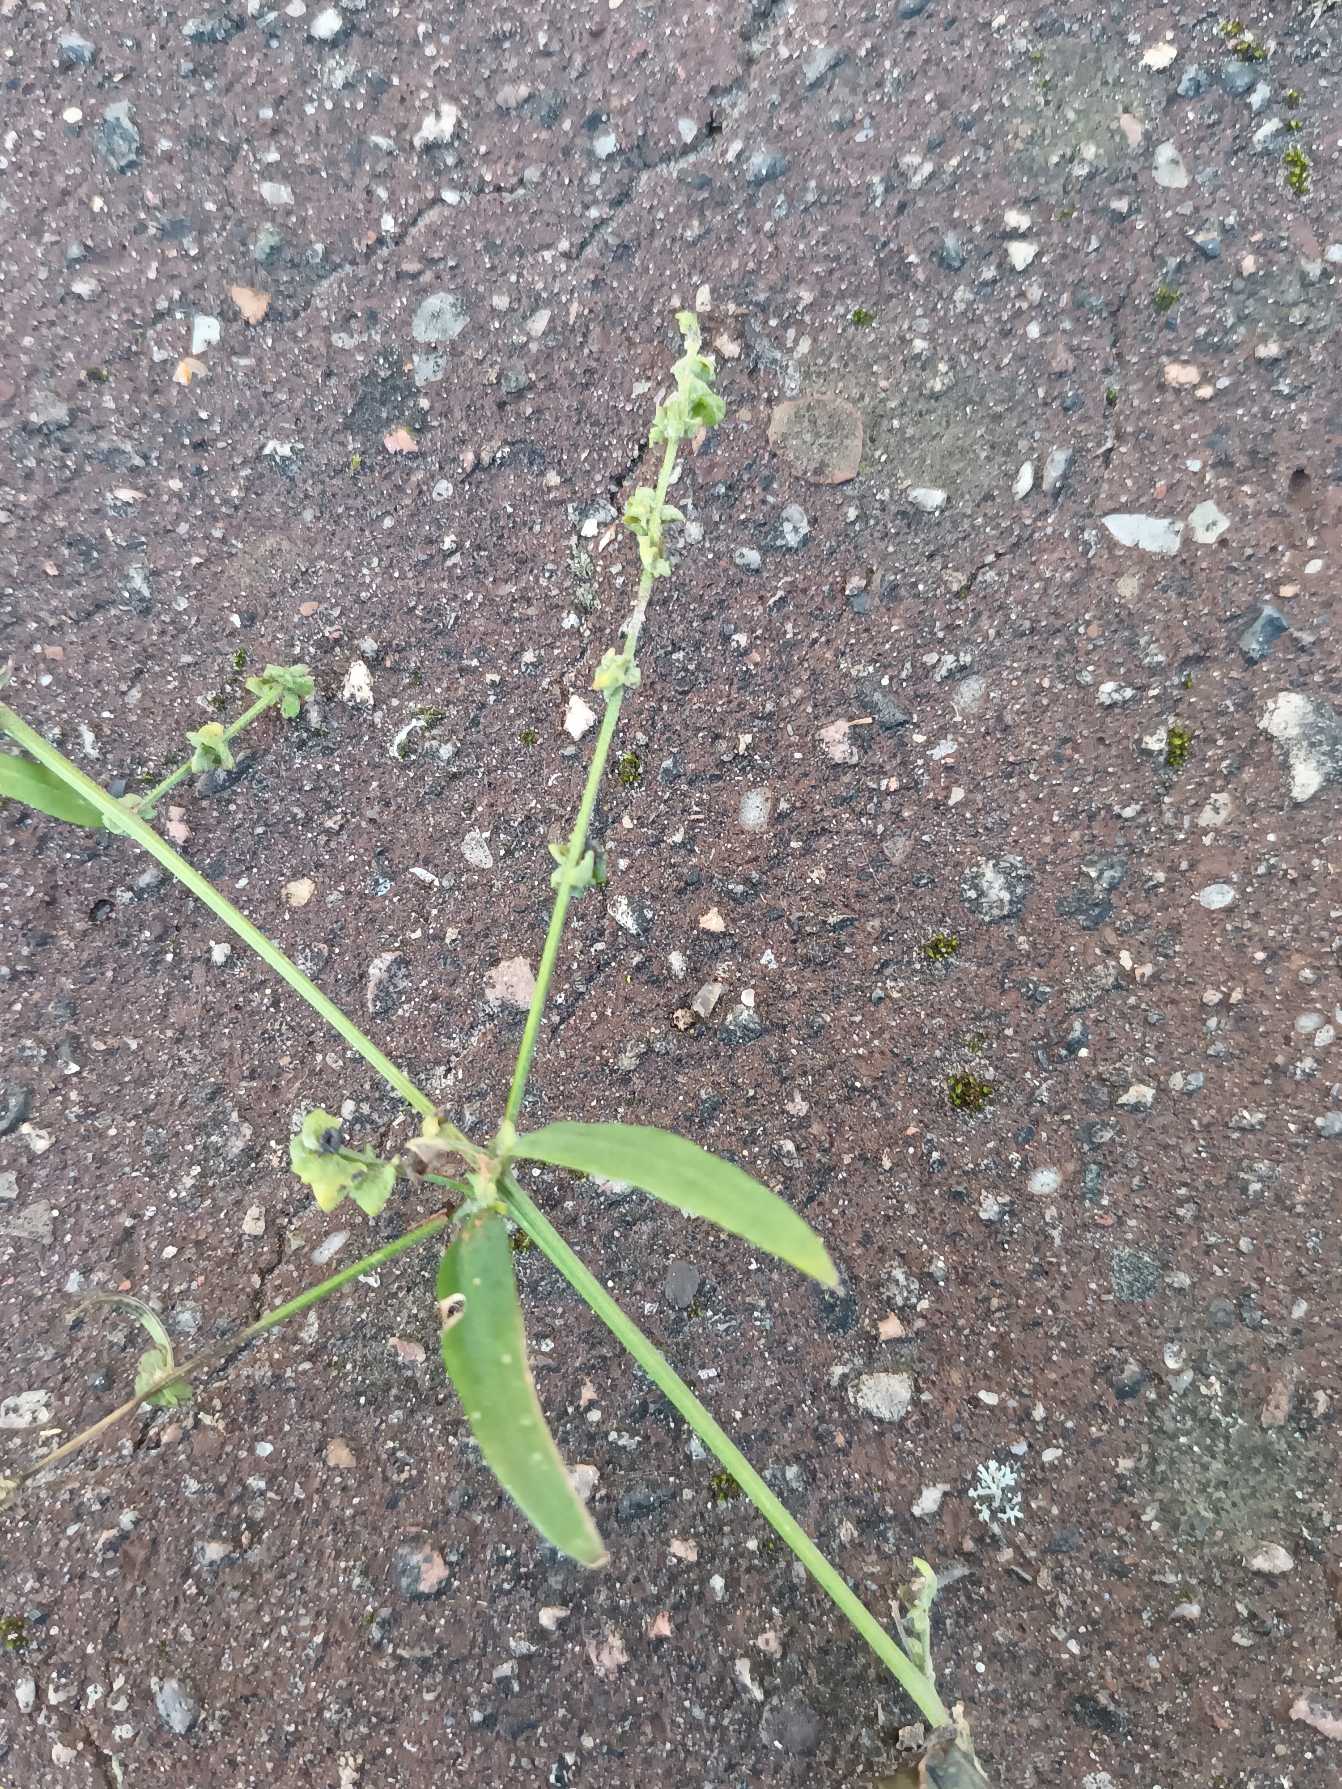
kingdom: Plantae
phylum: Tracheophyta
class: Magnoliopsida
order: Caryophyllales
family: Amaranthaceae
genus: Atriplex
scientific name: Atriplex patula
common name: Svine-mælde
